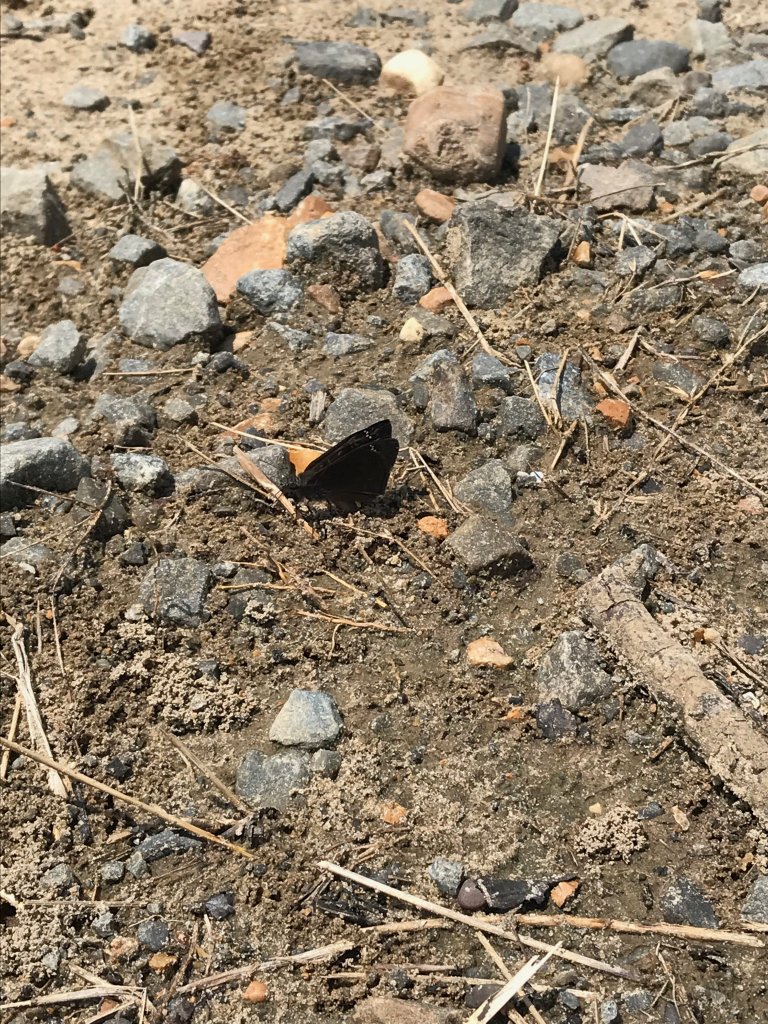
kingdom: Animalia
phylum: Arthropoda
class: Insecta
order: Lepidoptera
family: Hesperiidae
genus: Gesta
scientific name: Gesta
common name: Horace's Duskywing
